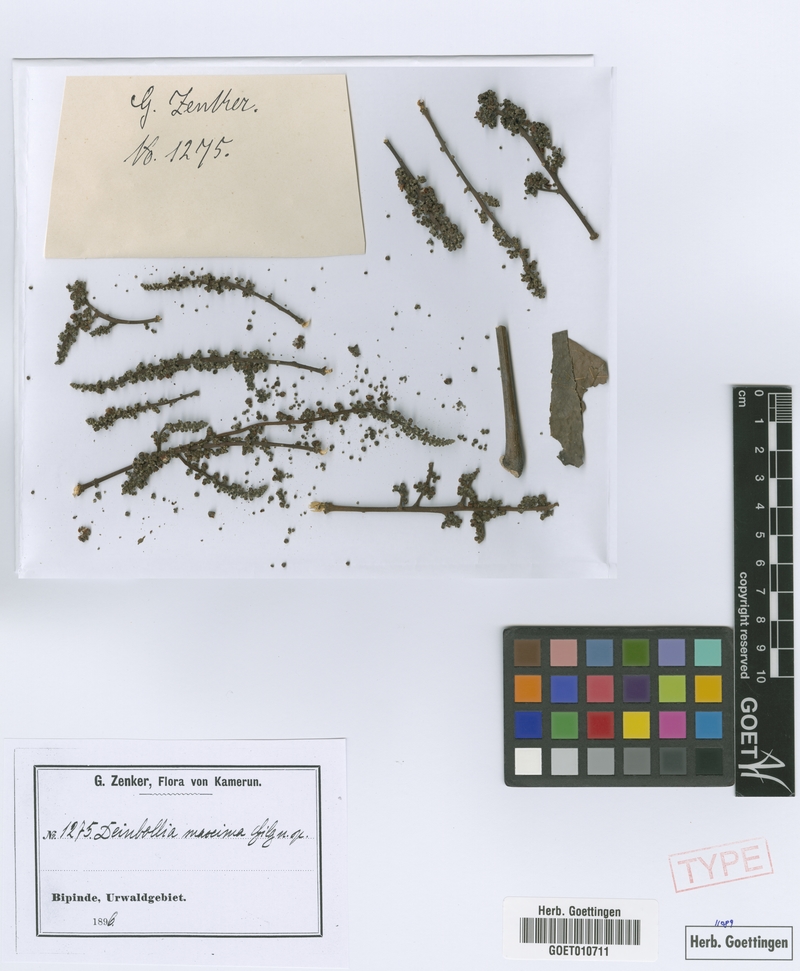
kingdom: Plantae
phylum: Tracheophyta
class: Magnoliopsida
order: Sapindales
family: Sapindaceae
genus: Deinbollia
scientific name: Deinbollia maxima
